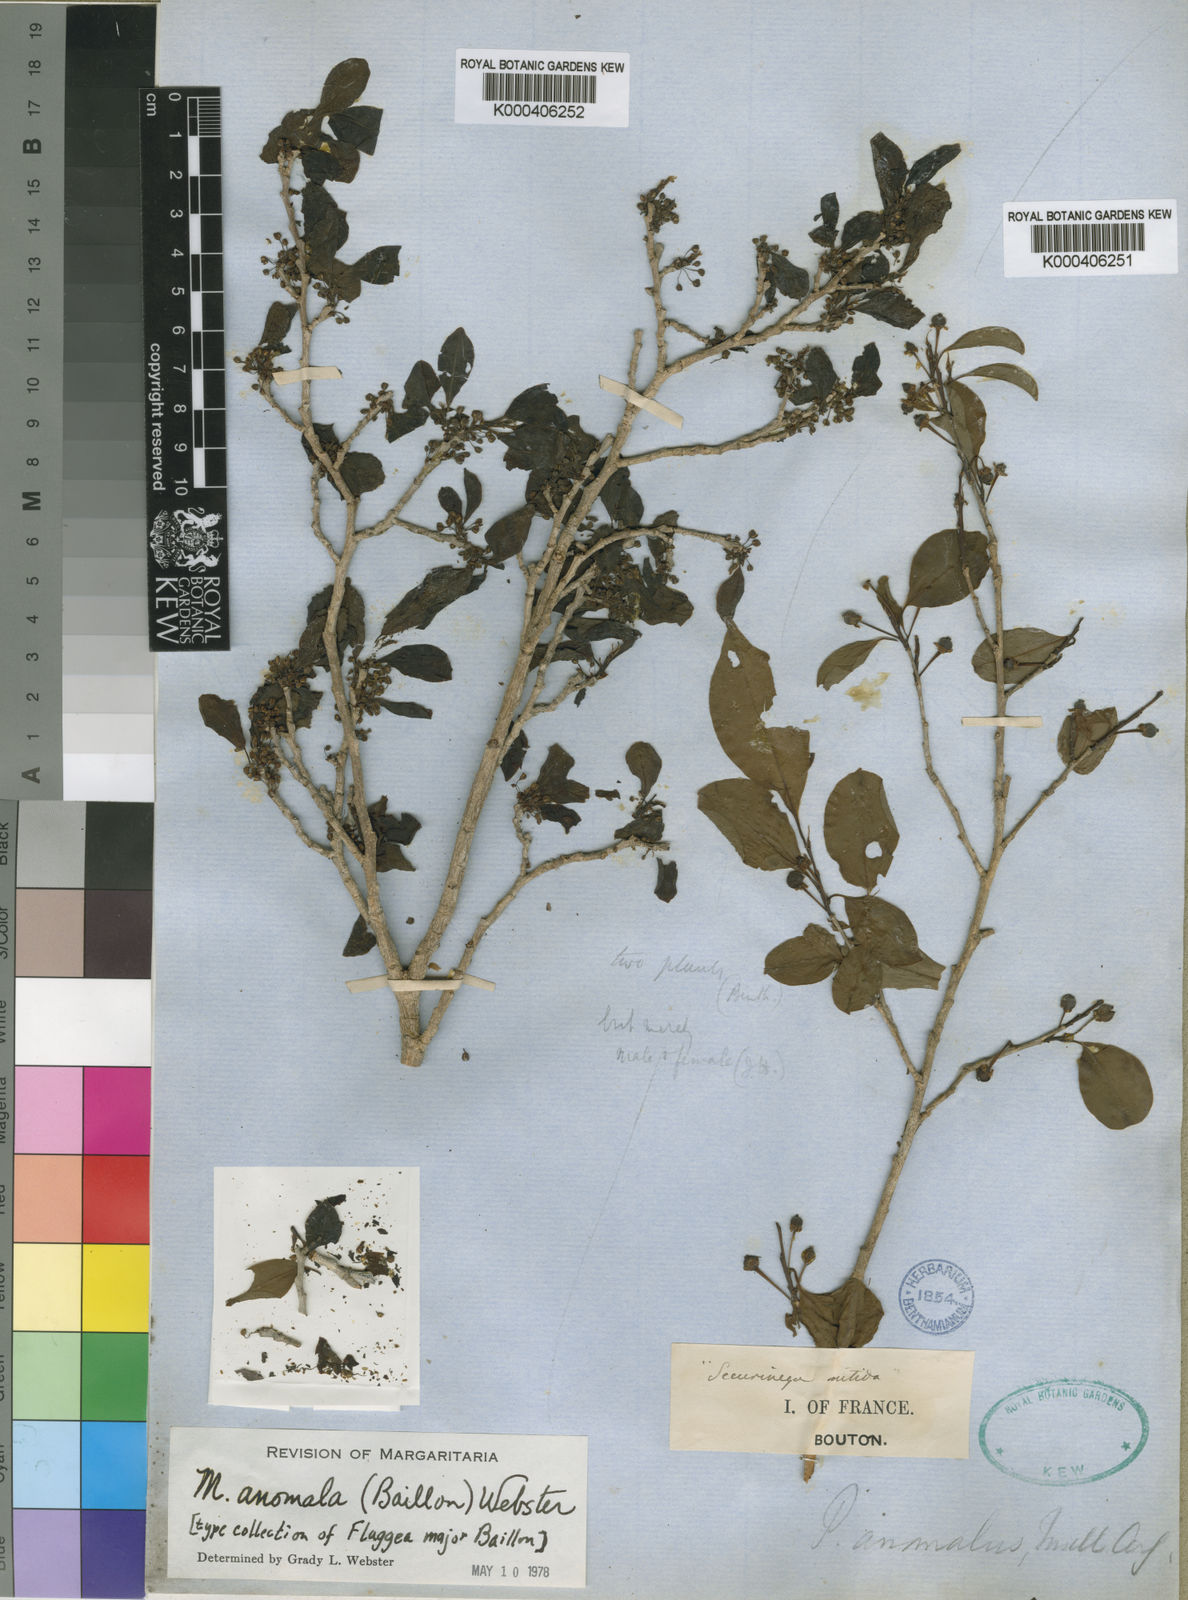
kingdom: Plantae
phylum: Tracheophyta
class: Magnoliopsida
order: Malpighiales
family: Phyllanthaceae
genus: Margaritaria
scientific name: Margaritaria anomala
